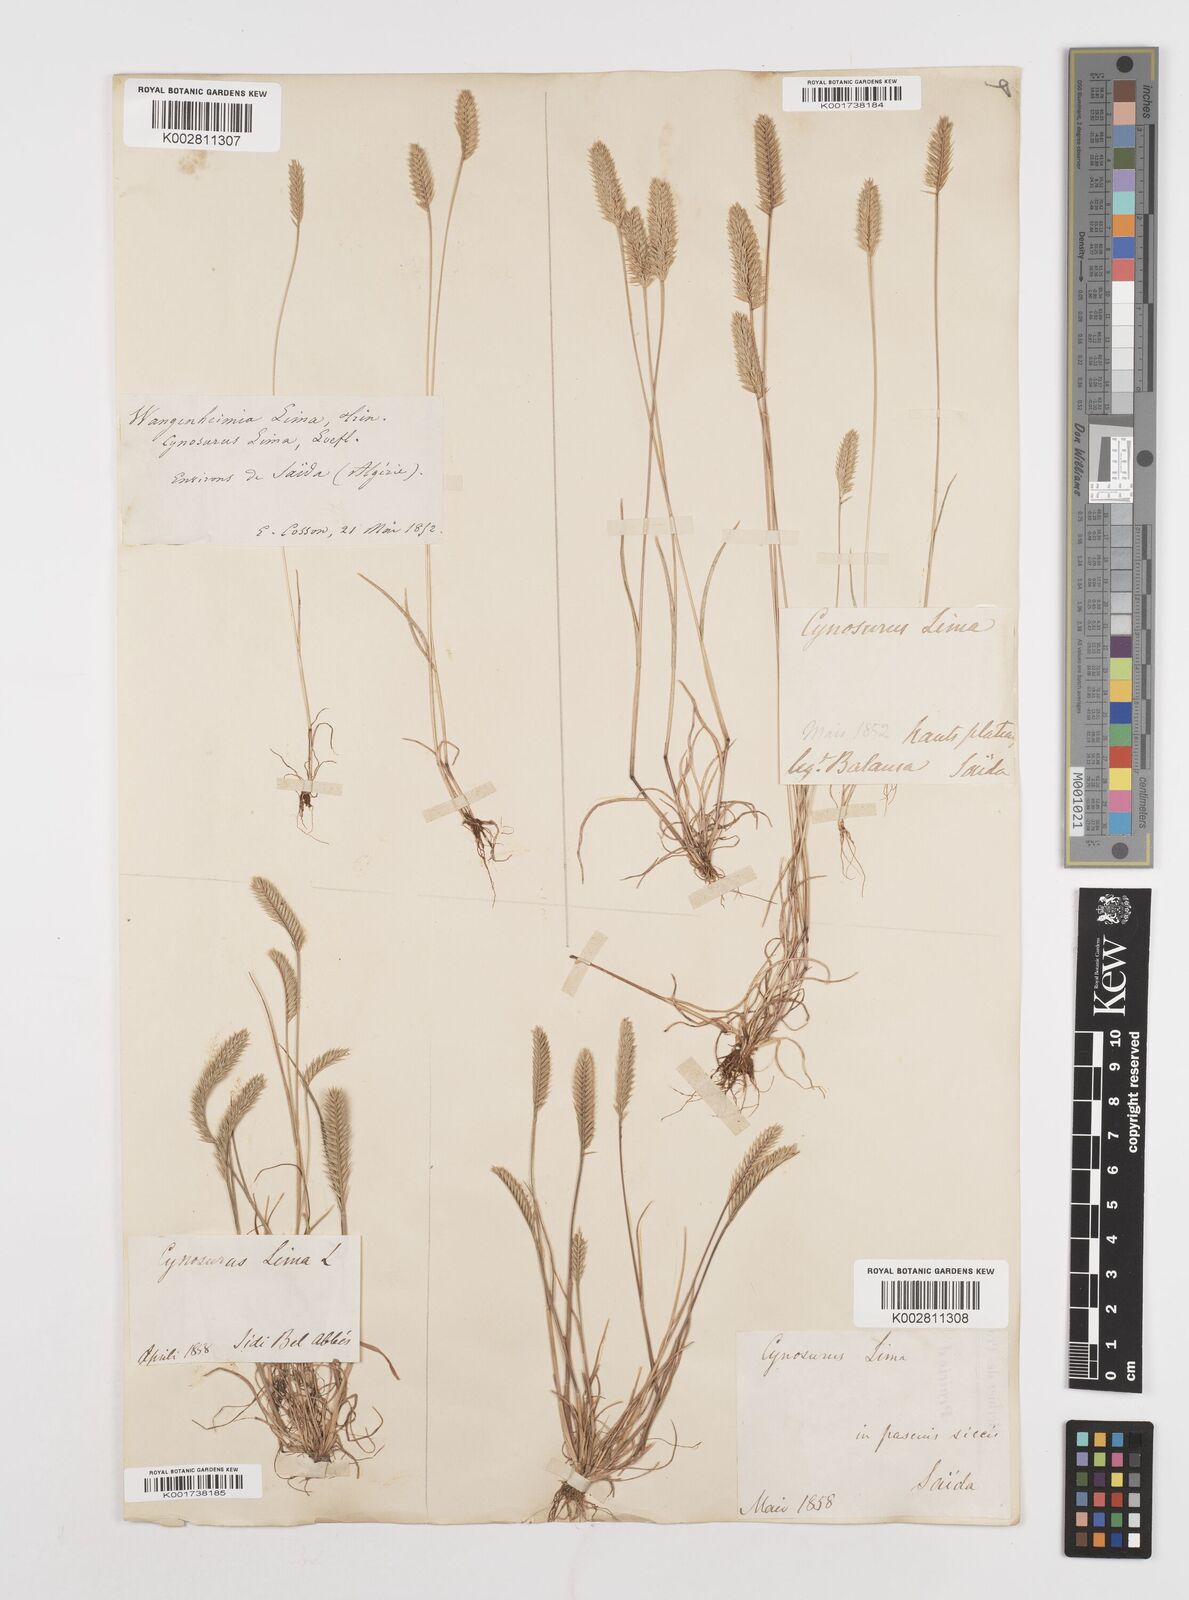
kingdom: Plantae
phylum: Tracheophyta
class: Liliopsida
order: Poales
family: Poaceae
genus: Wangenheimia
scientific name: Wangenheimia lima
